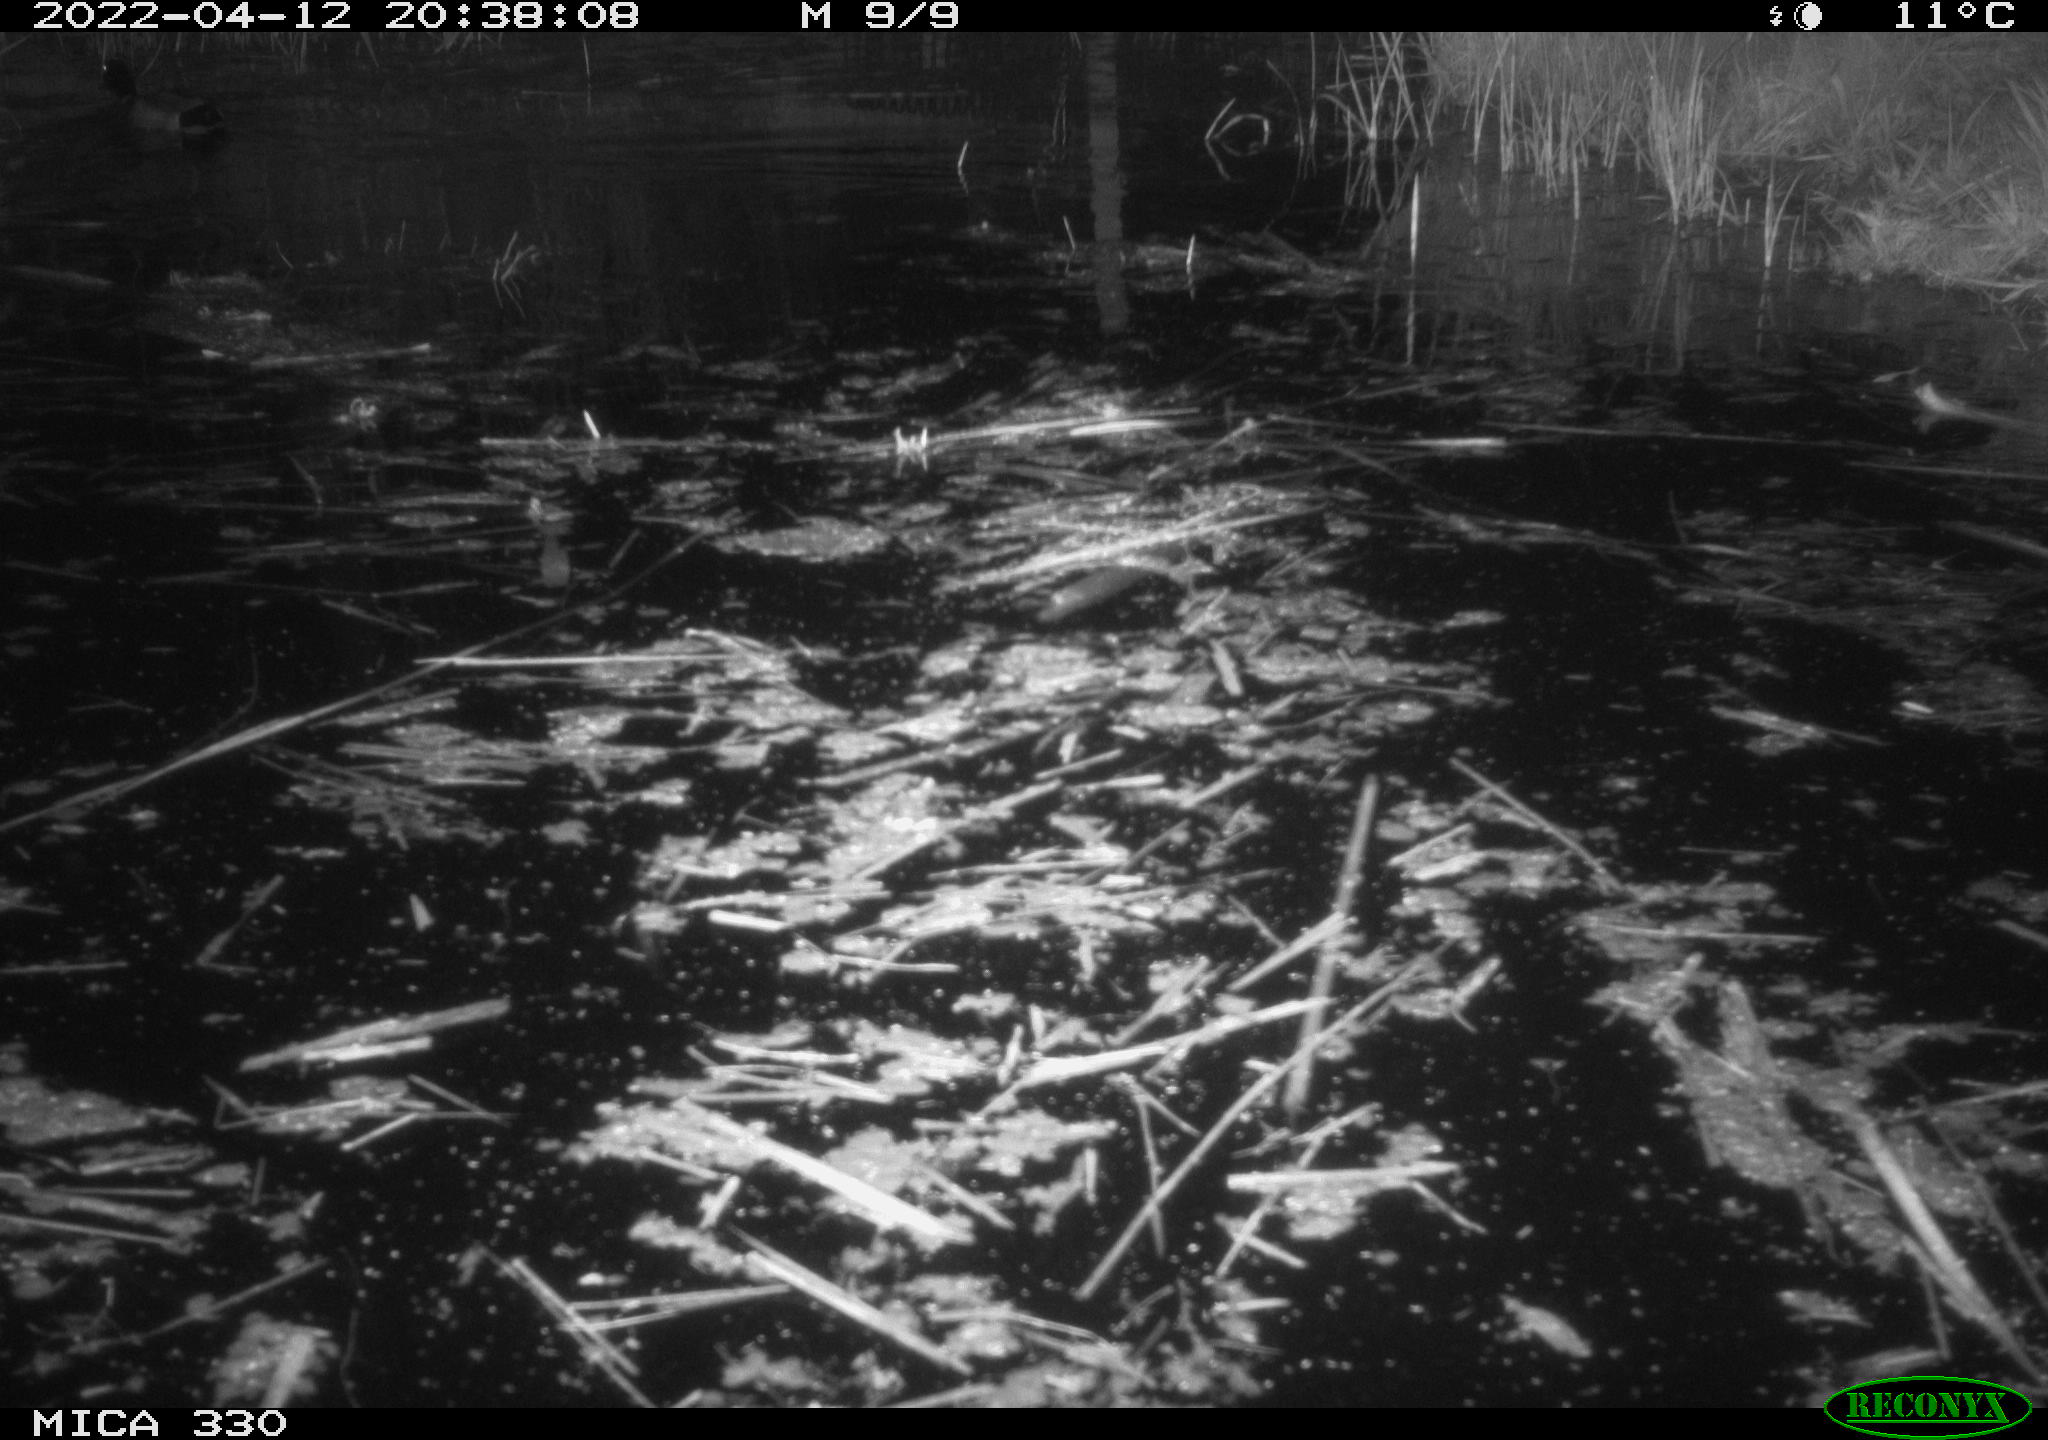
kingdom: Animalia
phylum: Chordata
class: Aves
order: Anseriformes
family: Anatidae
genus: Anas
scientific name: Anas platyrhynchos
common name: Mallard
